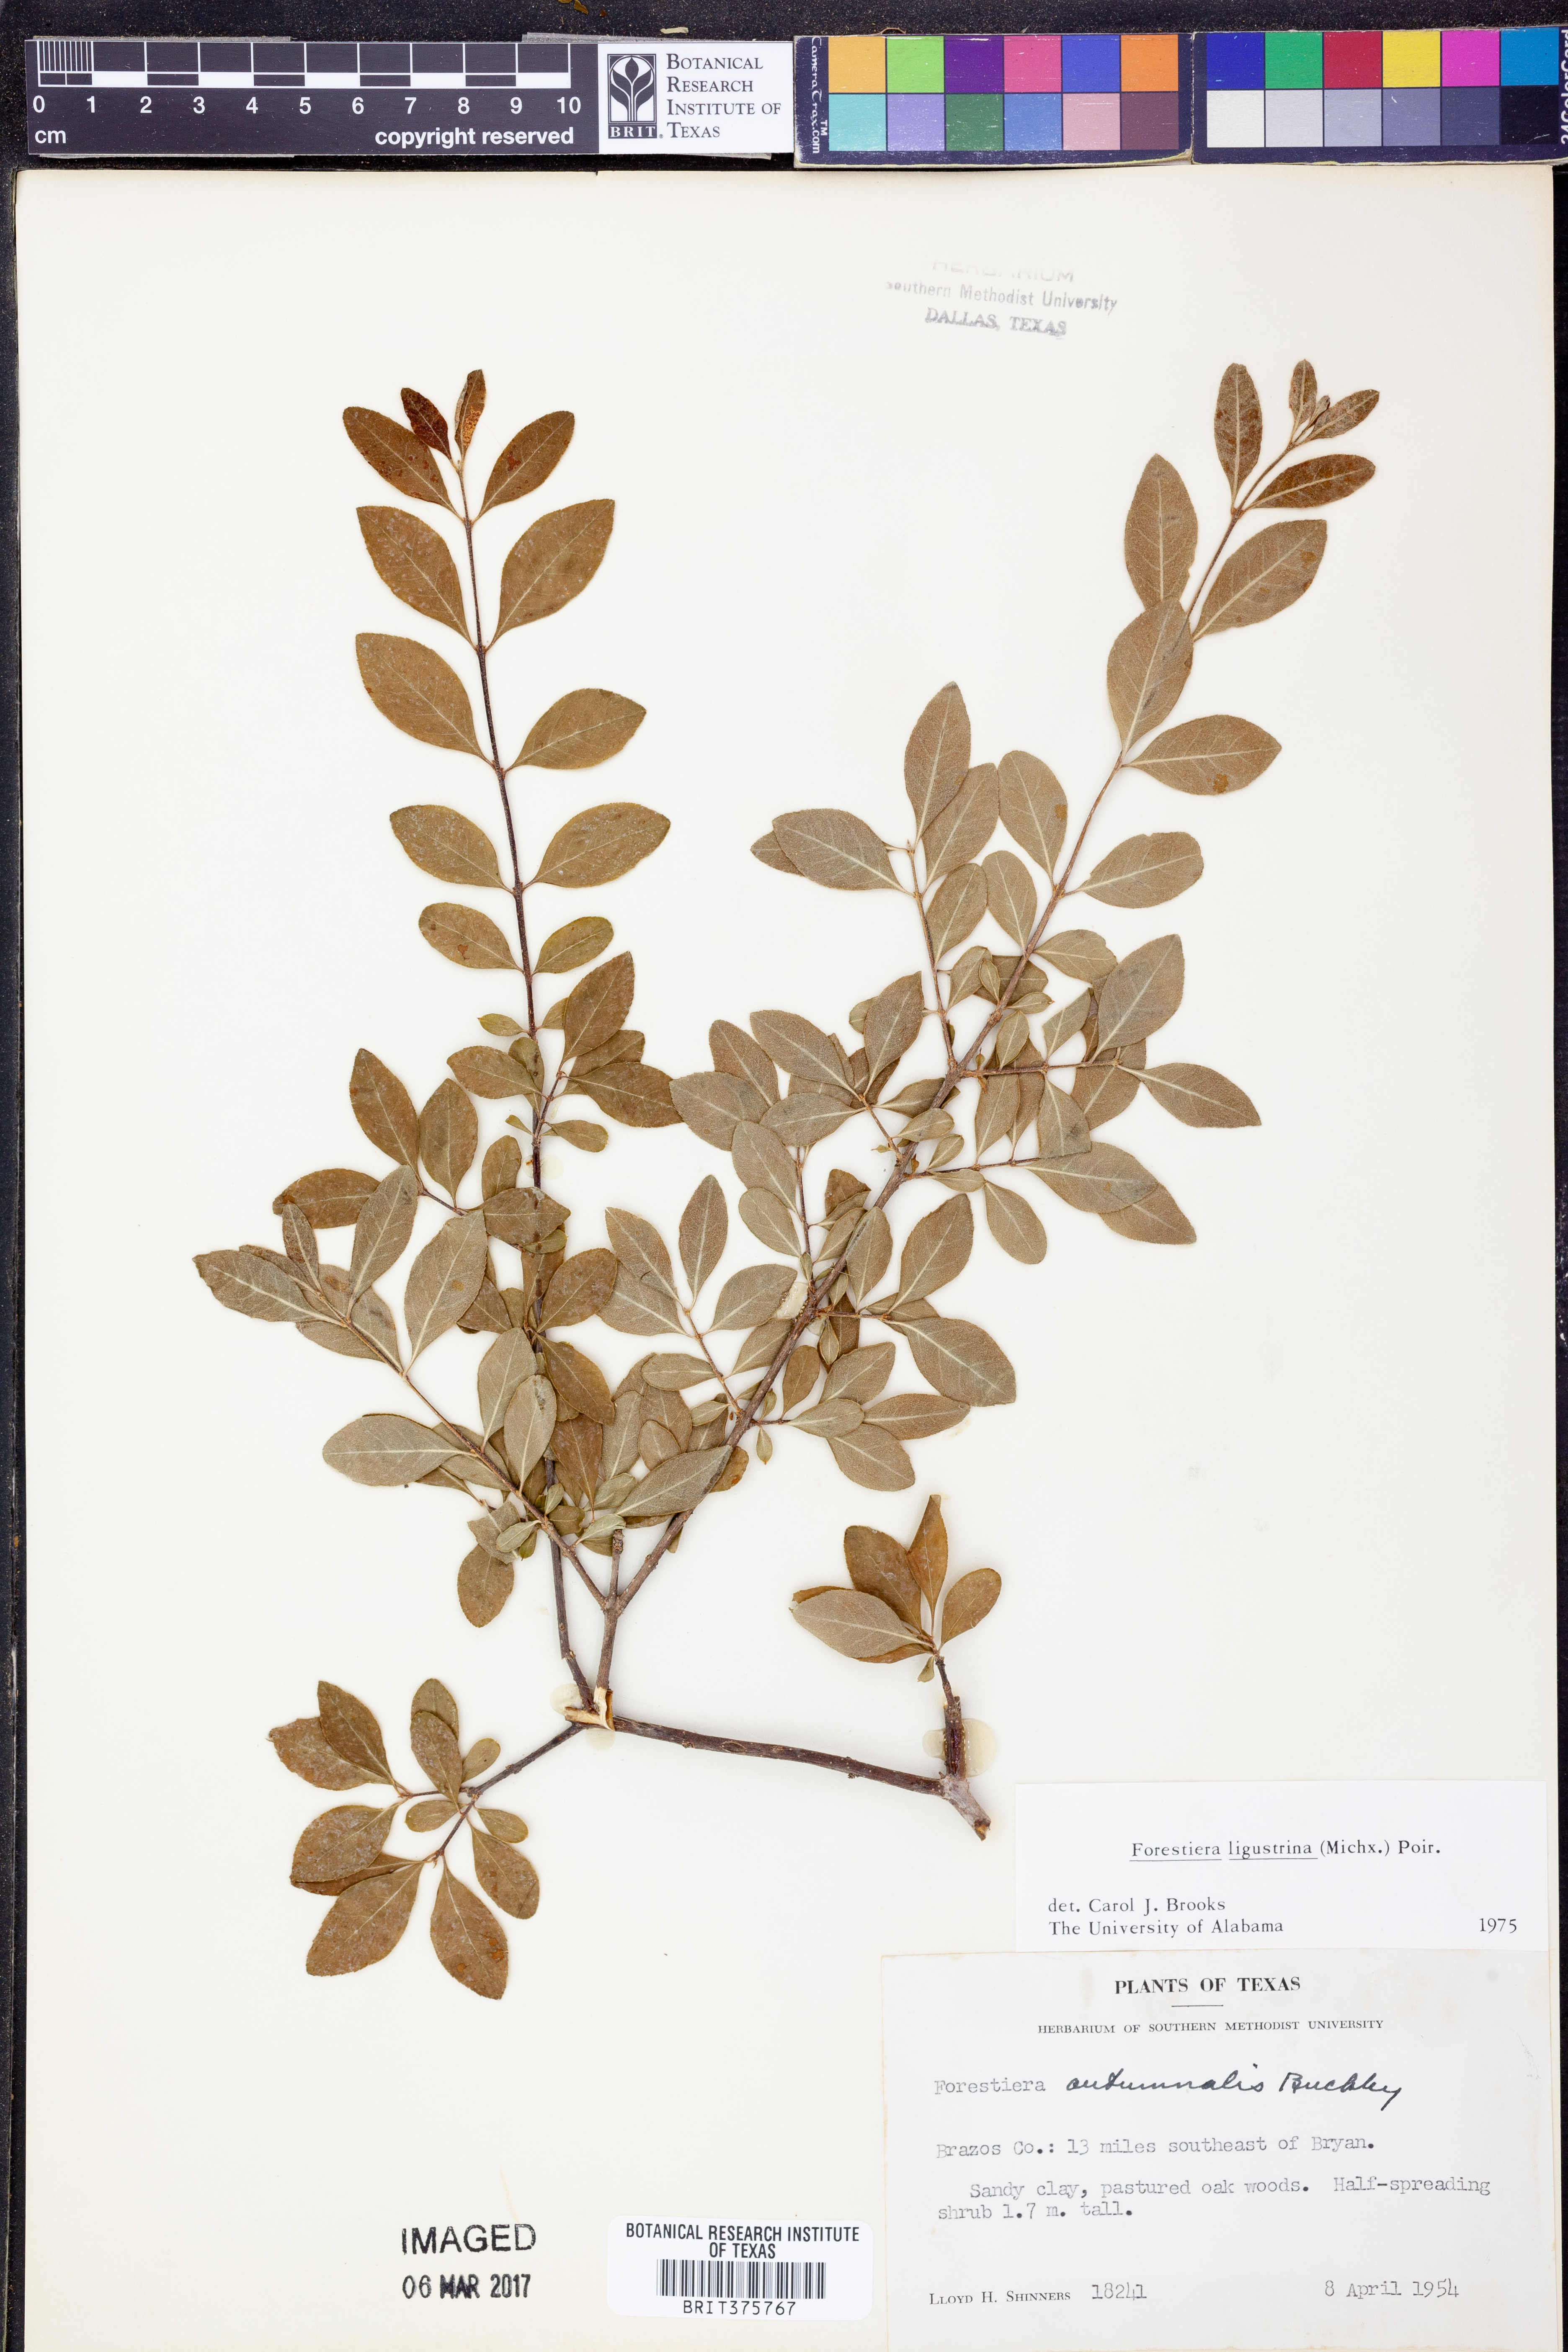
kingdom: Plantae
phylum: Tracheophyta
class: Magnoliopsida
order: Lamiales
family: Oleaceae
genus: Forestiera
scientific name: Forestiera ligustrina
